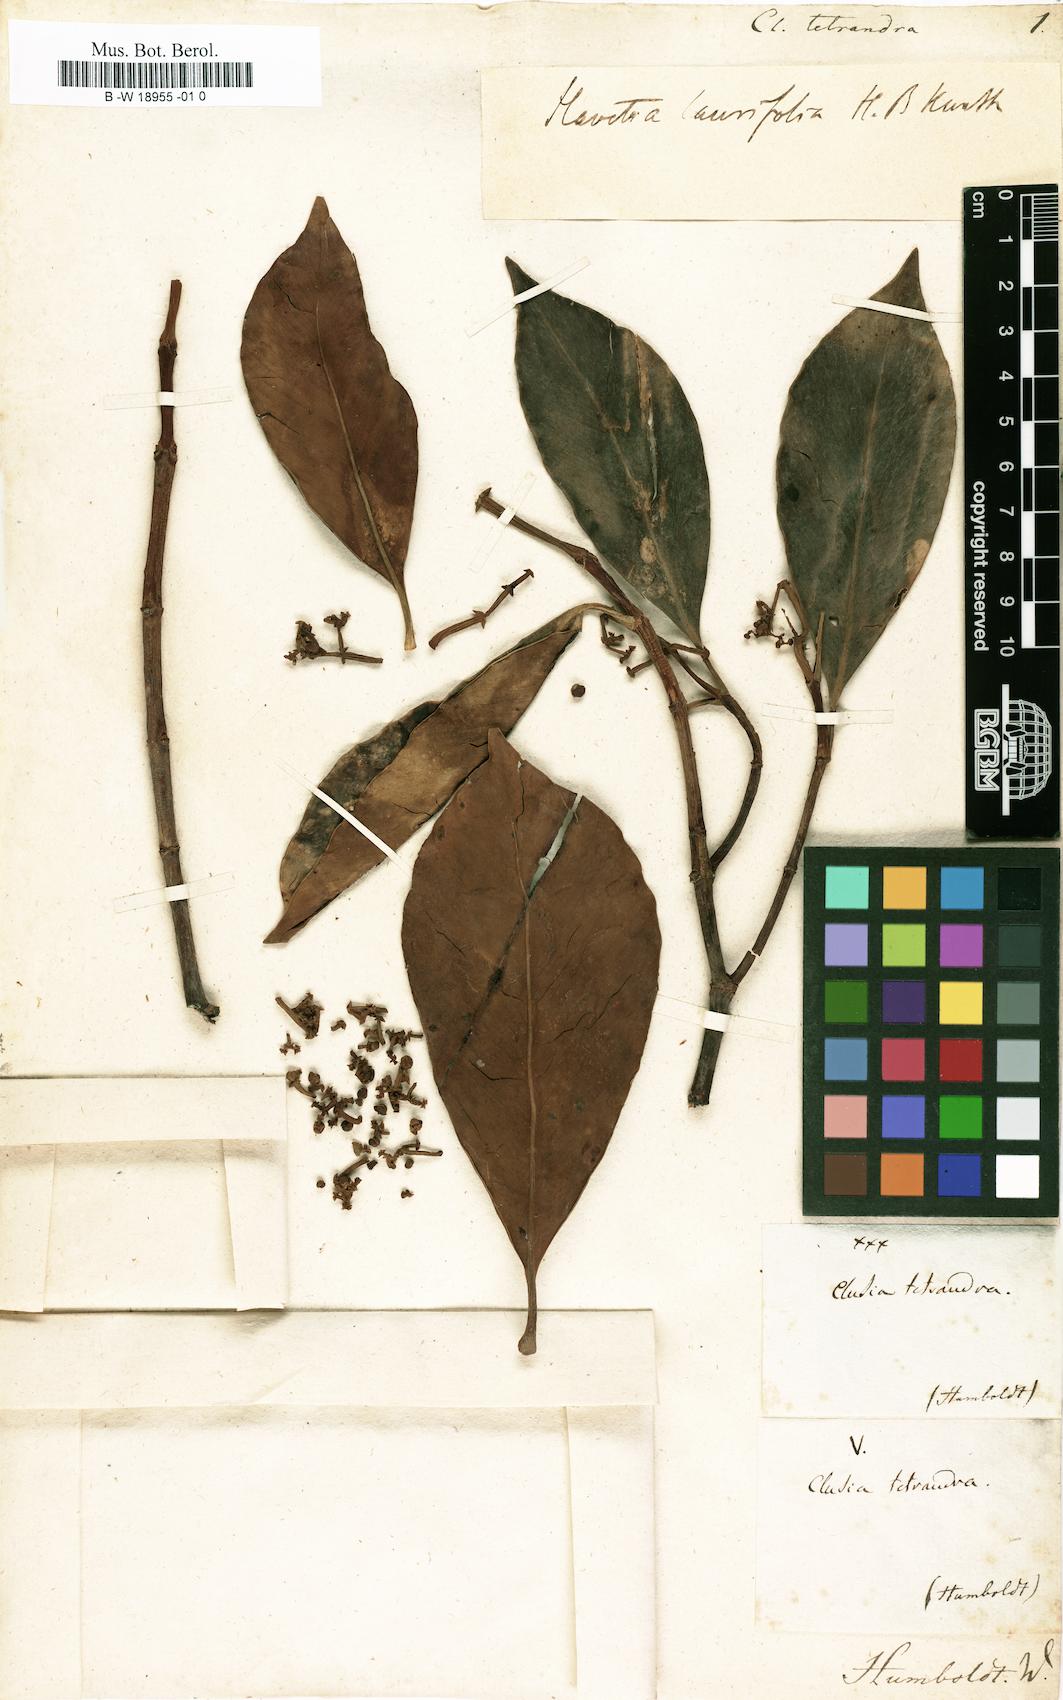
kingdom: Plantae
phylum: Tracheophyta
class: Magnoliopsida
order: Malpighiales
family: Clusiaceae
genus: Clusia
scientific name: Clusia tetrandra
